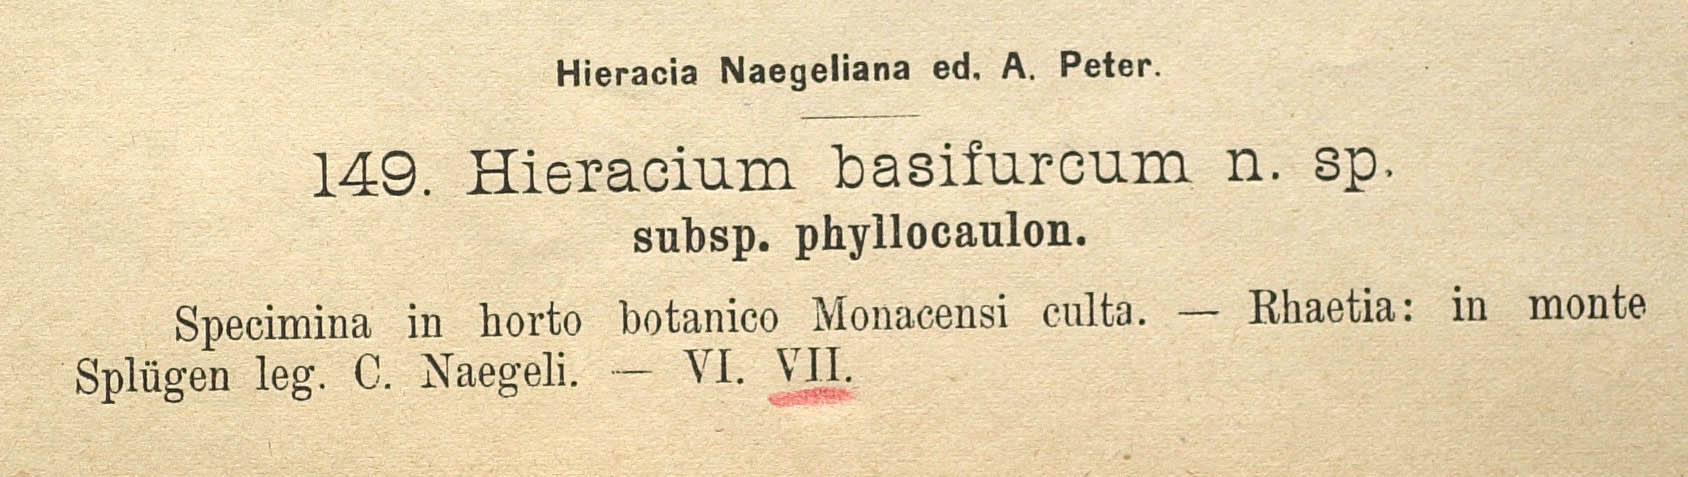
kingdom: Plantae
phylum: Tracheophyta
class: Magnoliopsida
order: Asterales
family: Asteraceae
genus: Pilosella
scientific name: Pilosella basifurca
